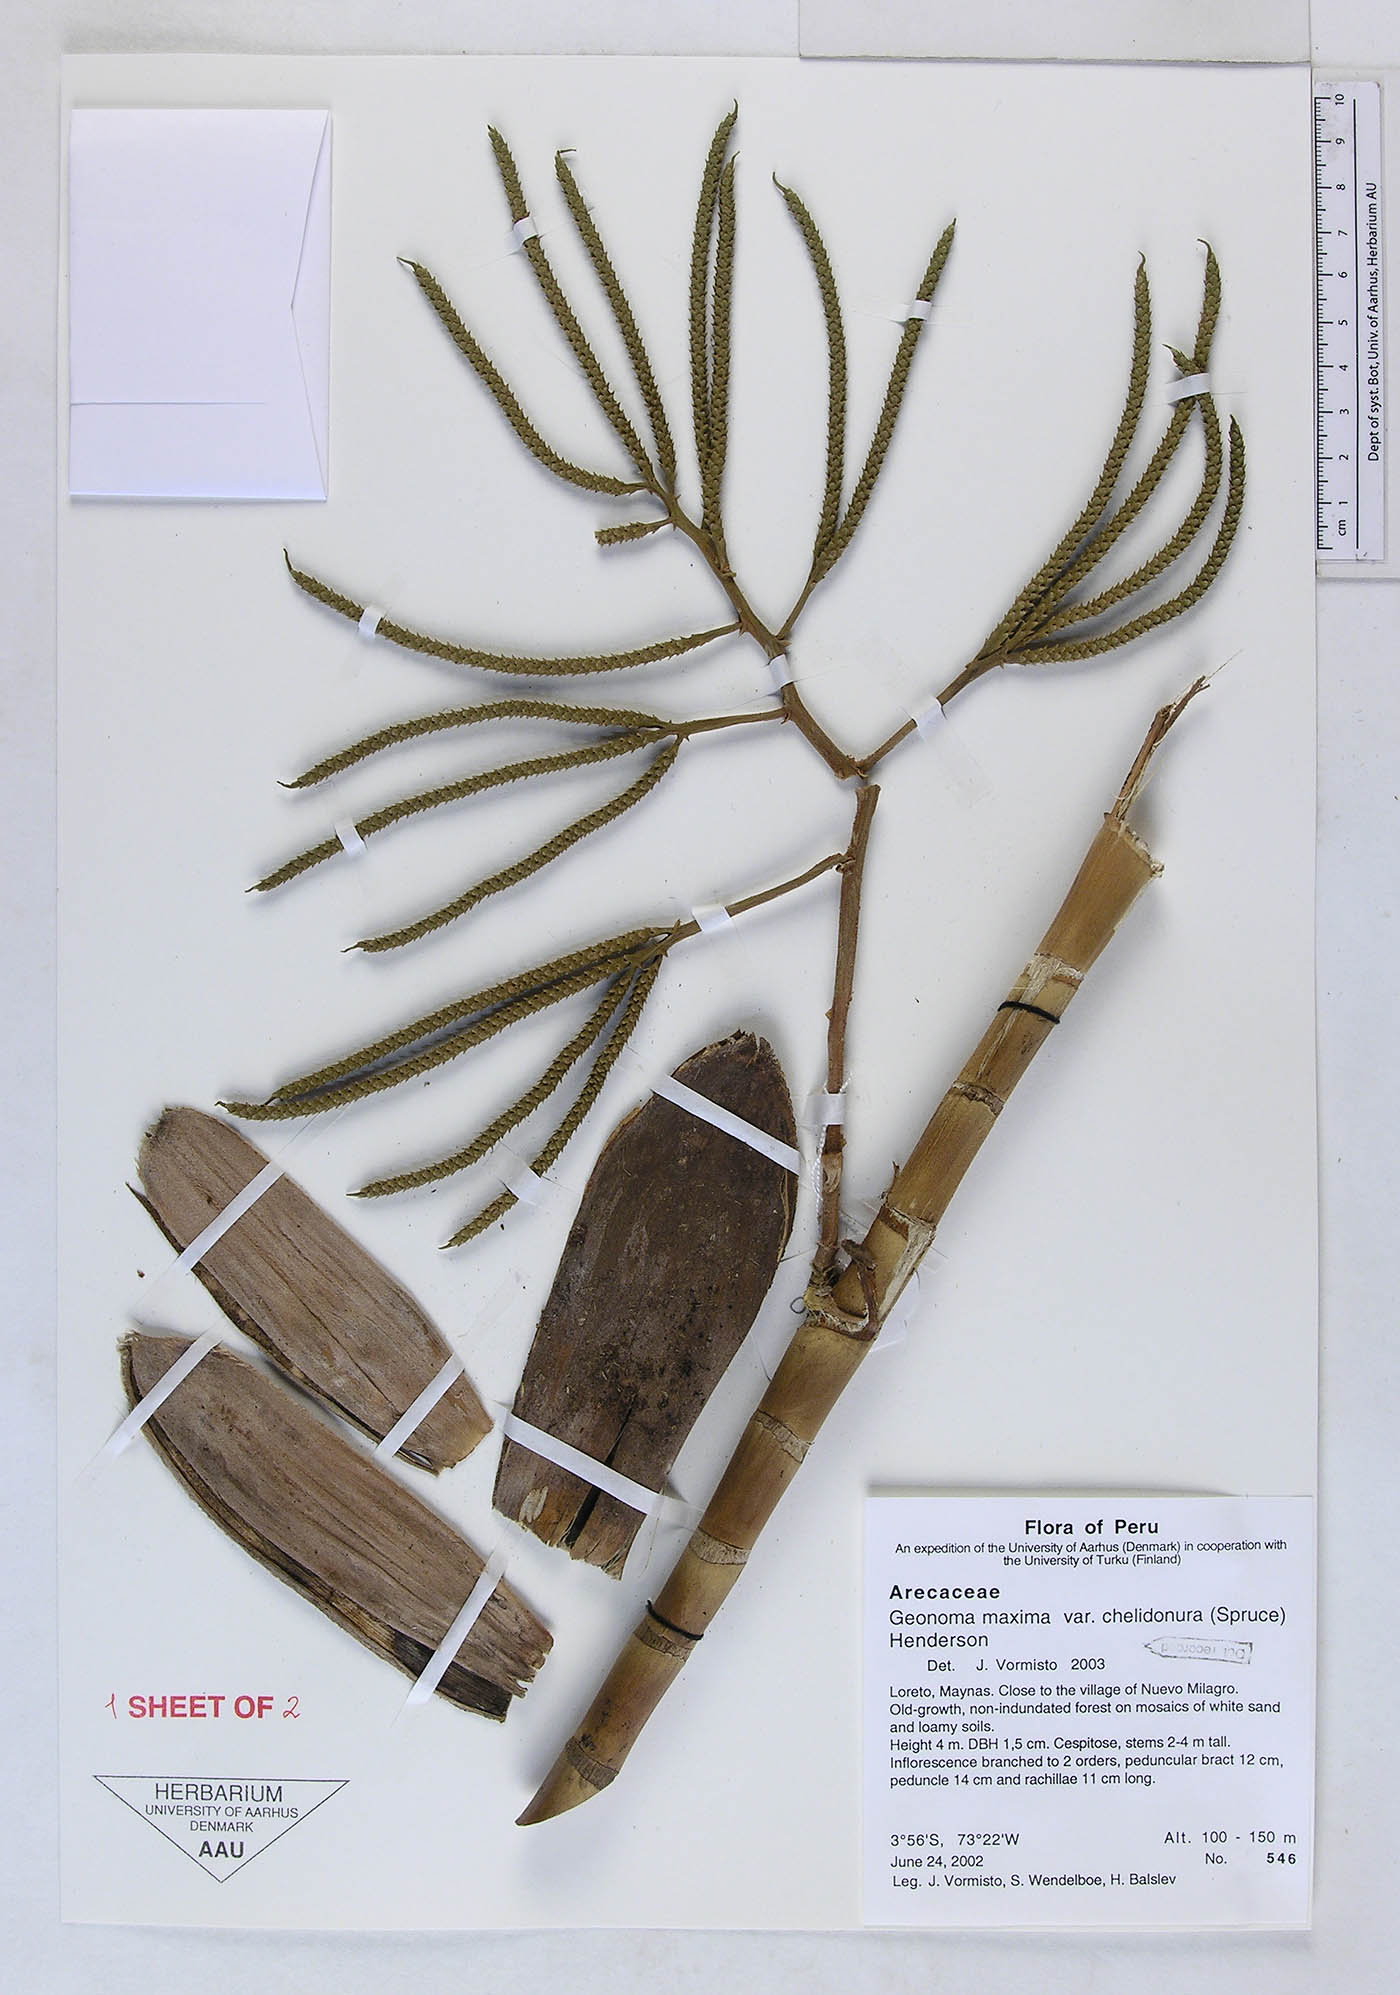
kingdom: Plantae
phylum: Tracheophyta
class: Liliopsida
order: Arecales
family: Arecaceae
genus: Geonoma
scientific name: Geonoma maxima
